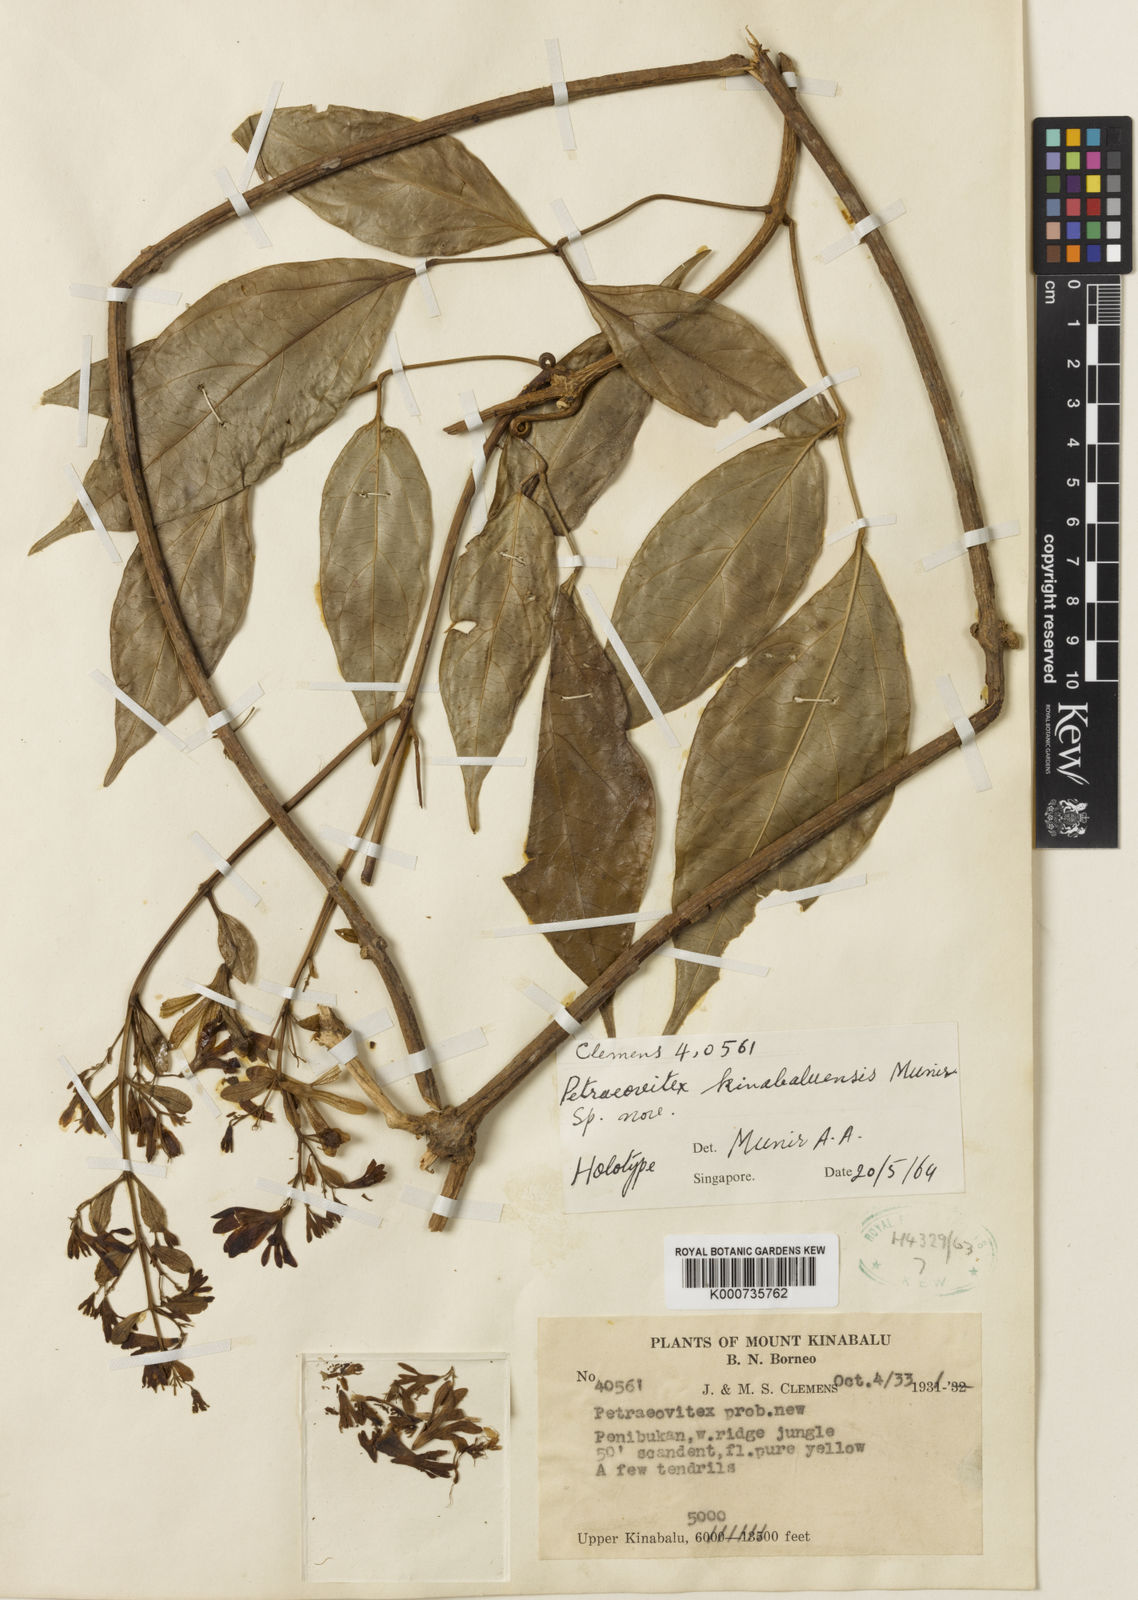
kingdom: Plantae
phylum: Tracheophyta
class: Magnoliopsida
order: Lamiales
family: Lamiaceae
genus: Petraeovitex
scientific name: Petraeovitex kinabaluensis
